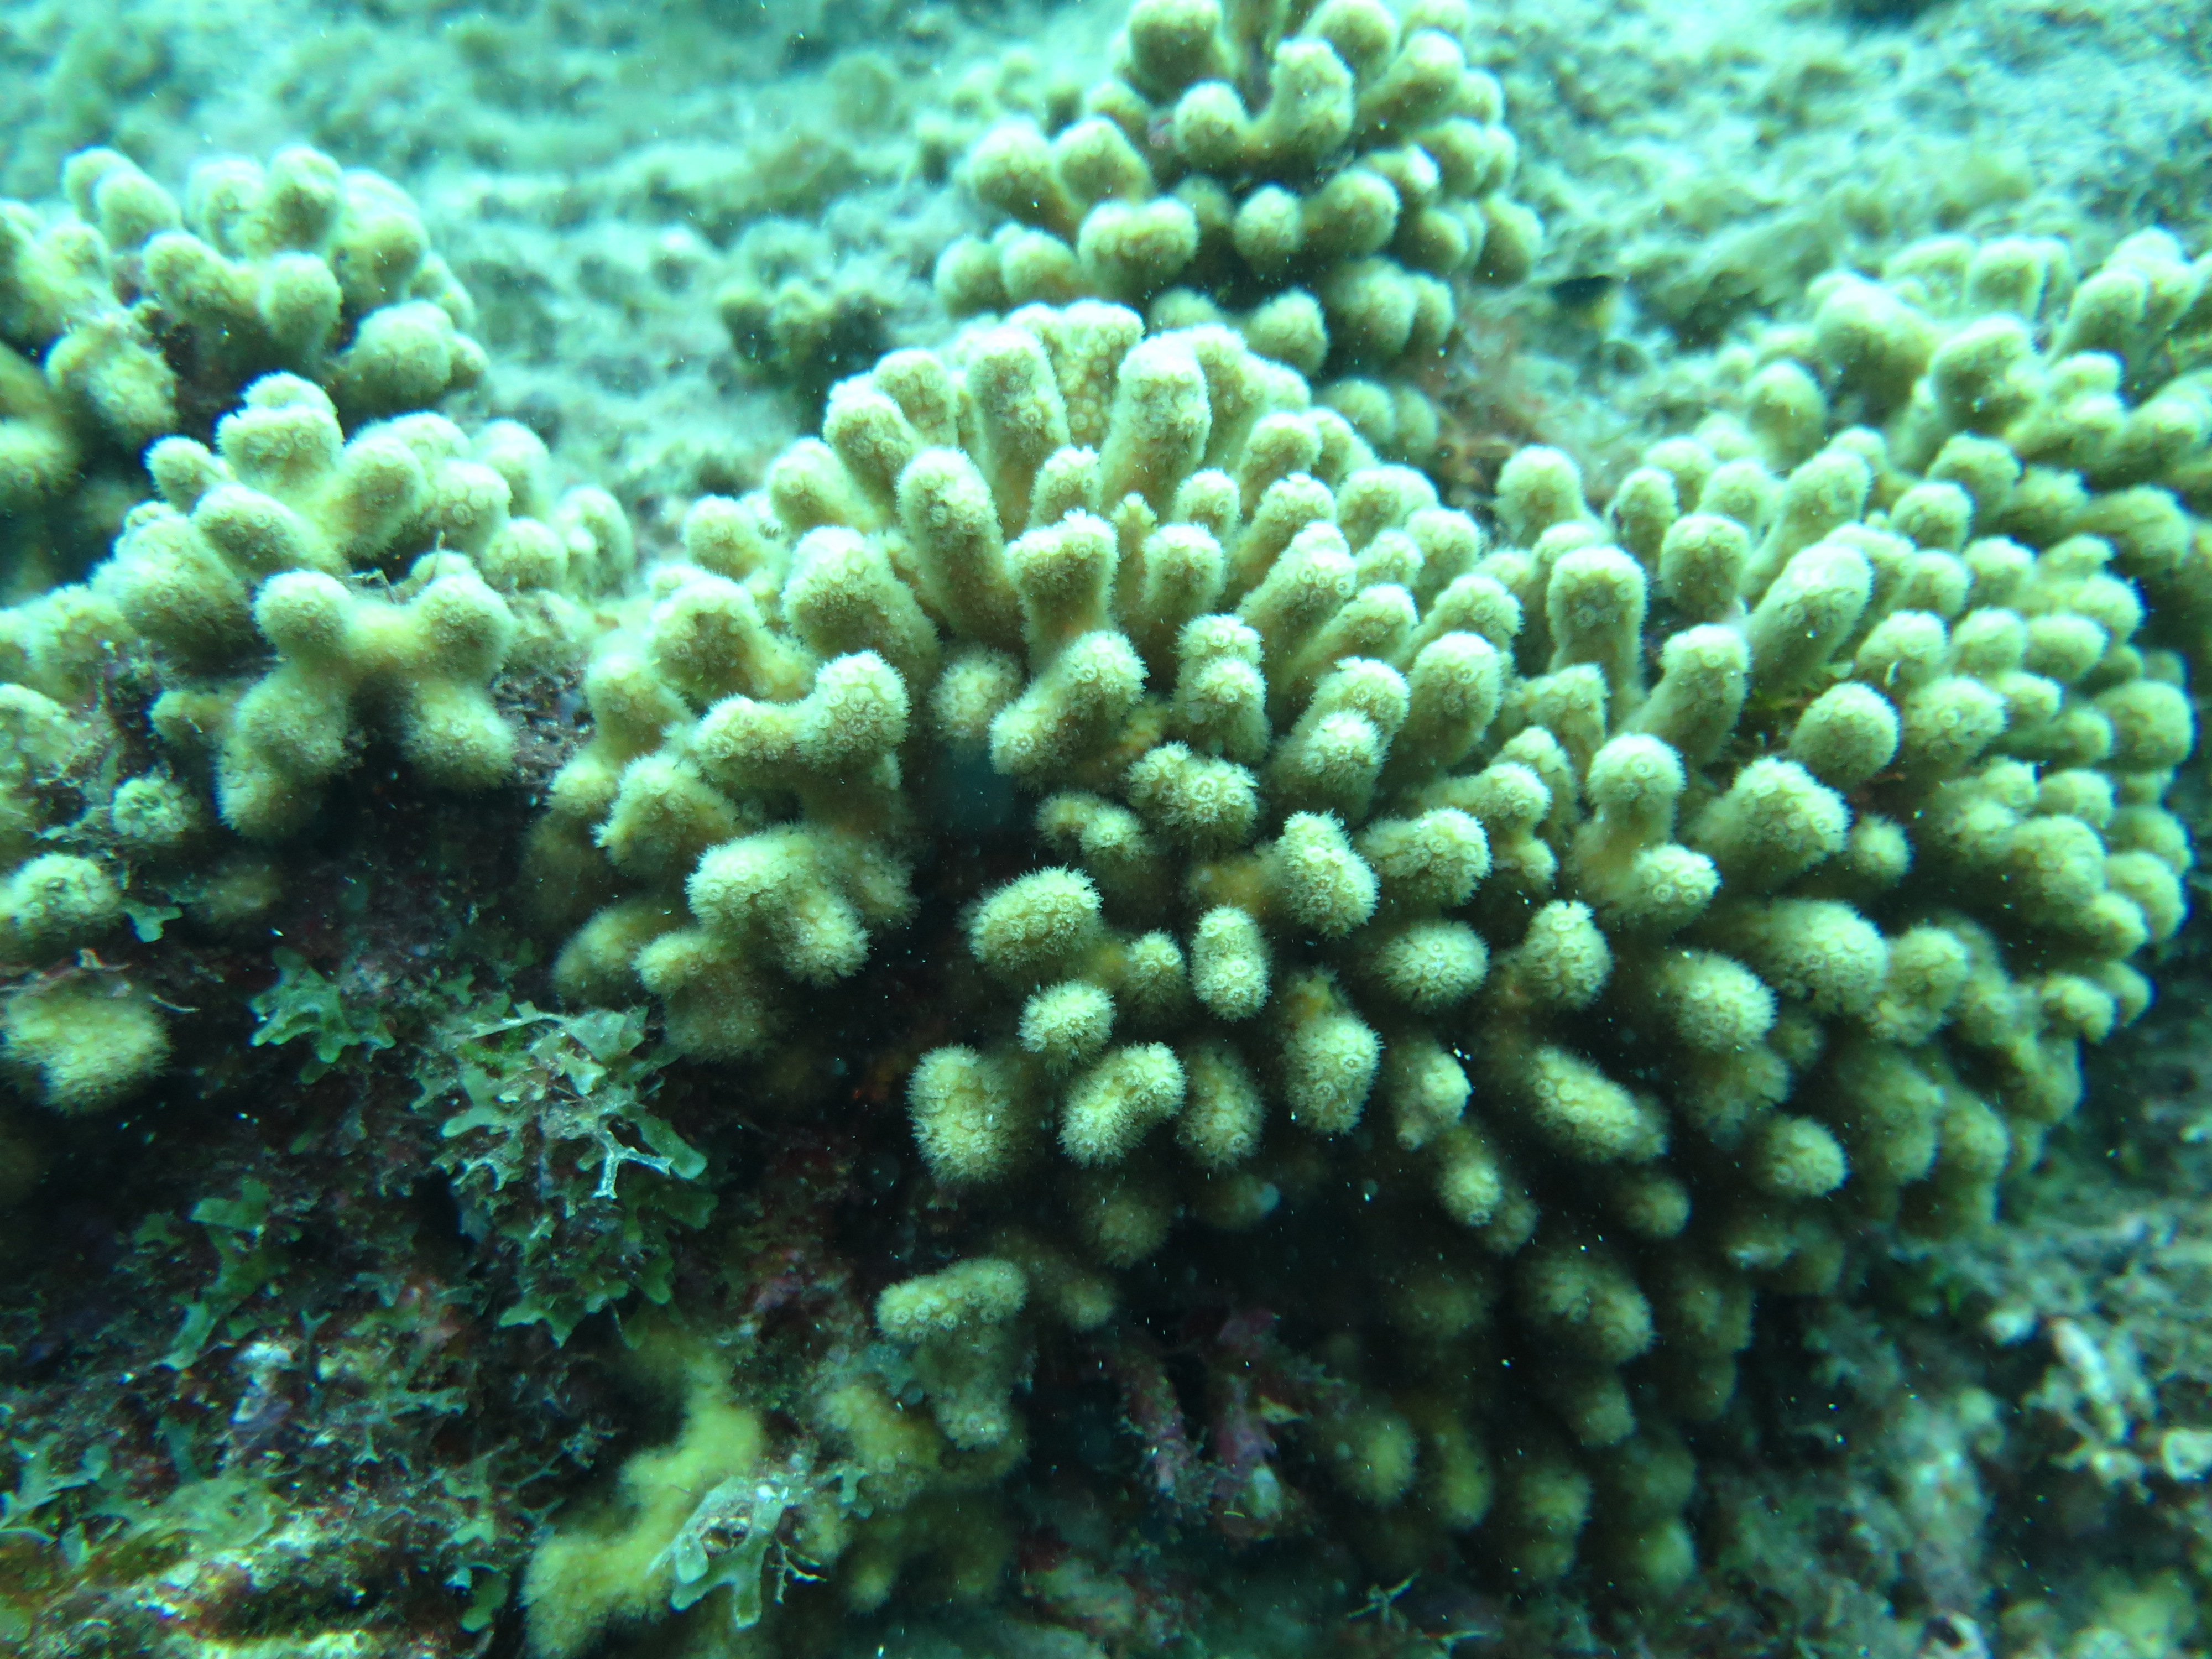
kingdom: Animalia
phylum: Cnidaria
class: Anthozoa
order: Scleractinia
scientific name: Scleractinia
